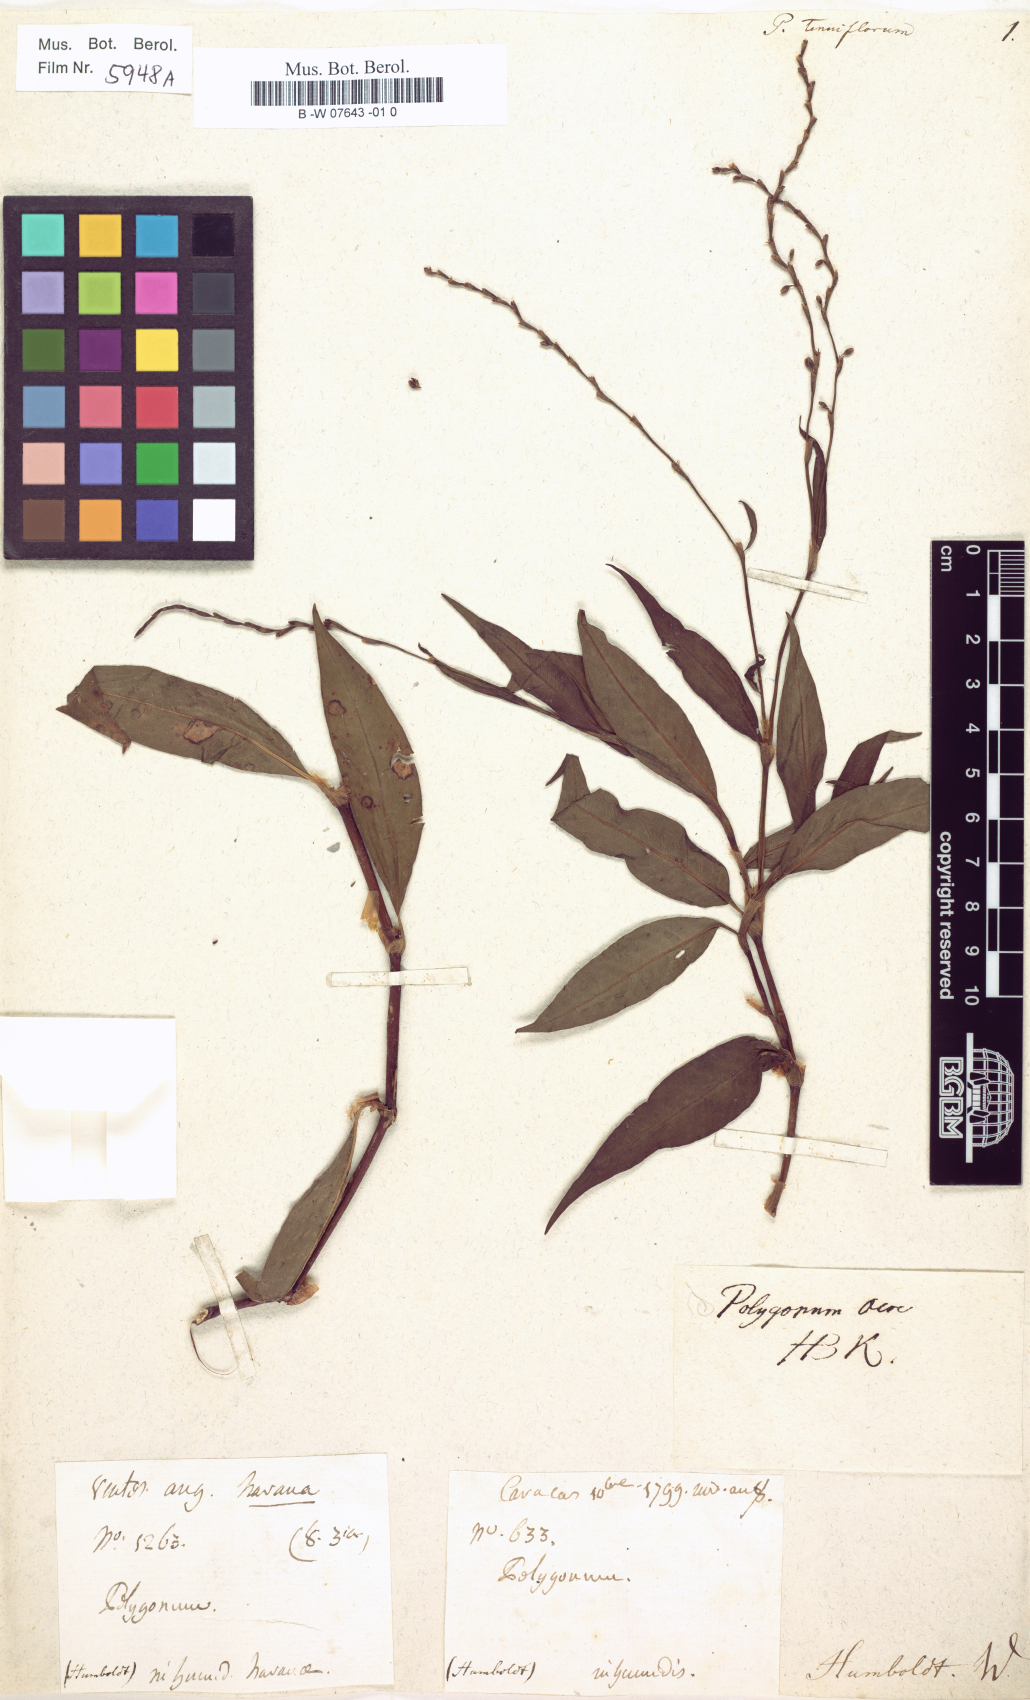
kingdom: Plantae
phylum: Tracheophyta
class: Magnoliopsida
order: Caryophyllales
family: Polygonaceae
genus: Persicaria
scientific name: Persicaria lapathifolia
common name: Curlytop knotweed
